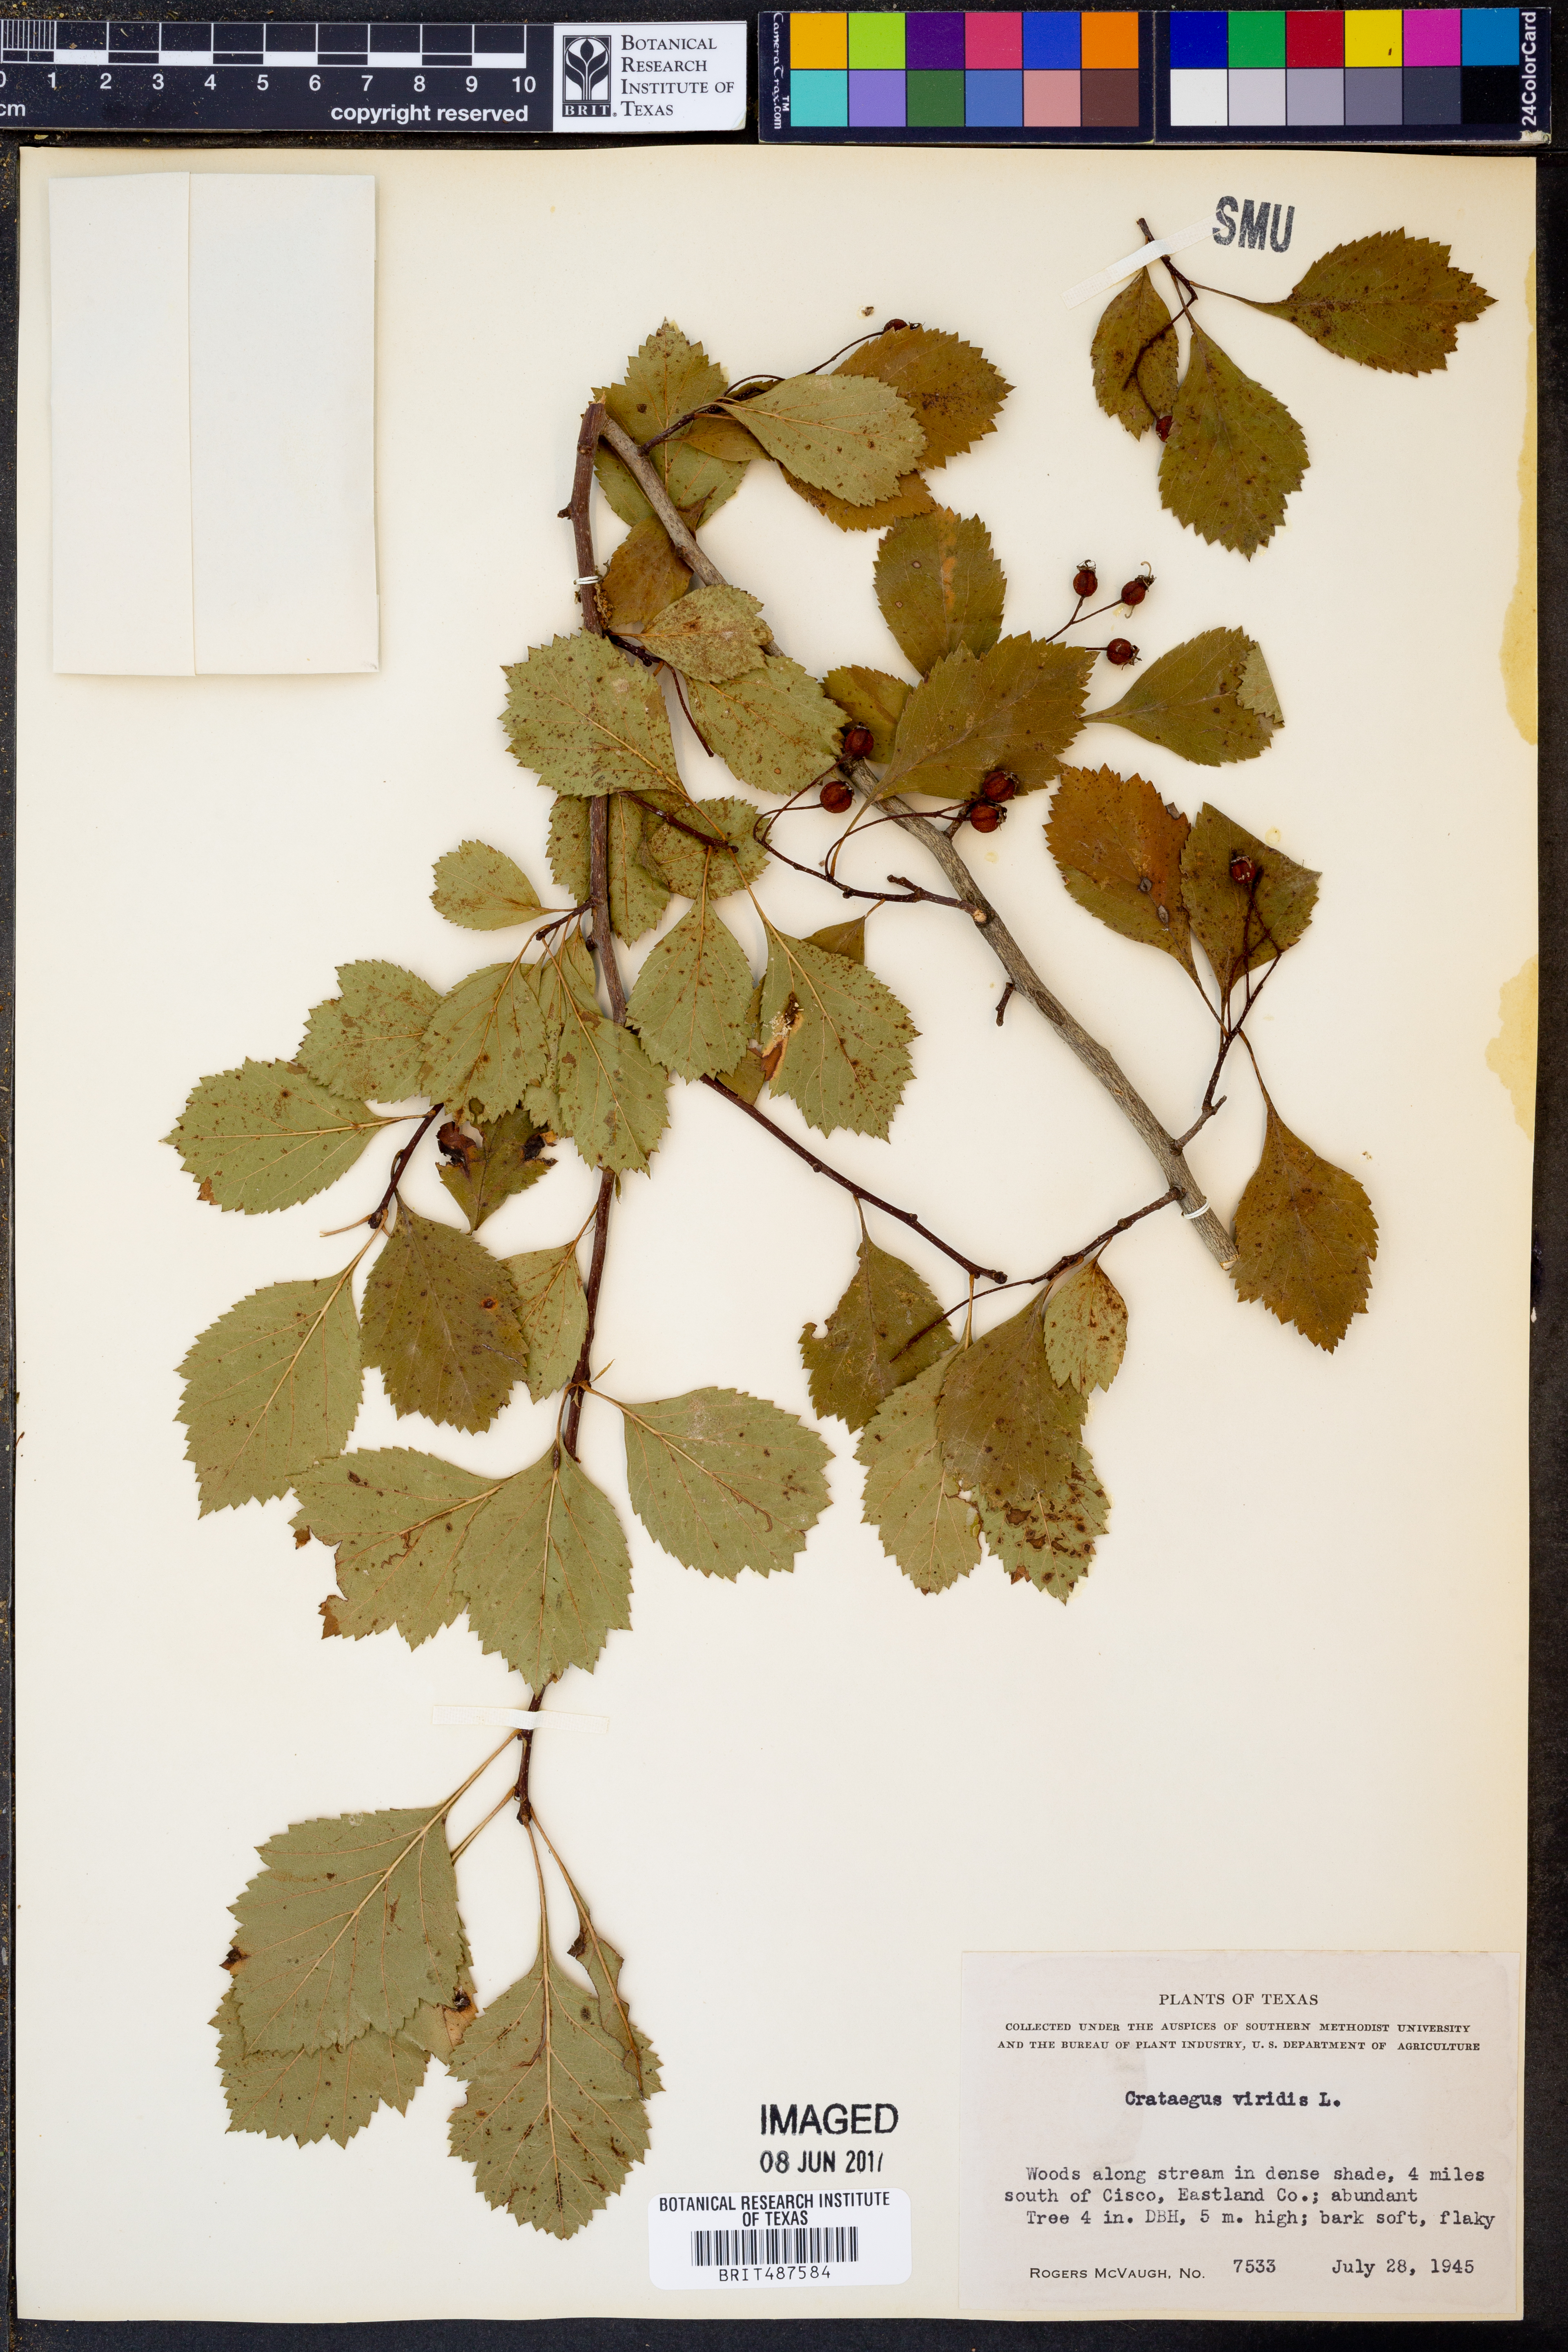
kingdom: Plantae
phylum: Tracheophyta
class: Magnoliopsida
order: Rosales
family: Rosaceae
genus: Crataegus
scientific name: Crataegus viridis
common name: Southernthorn
